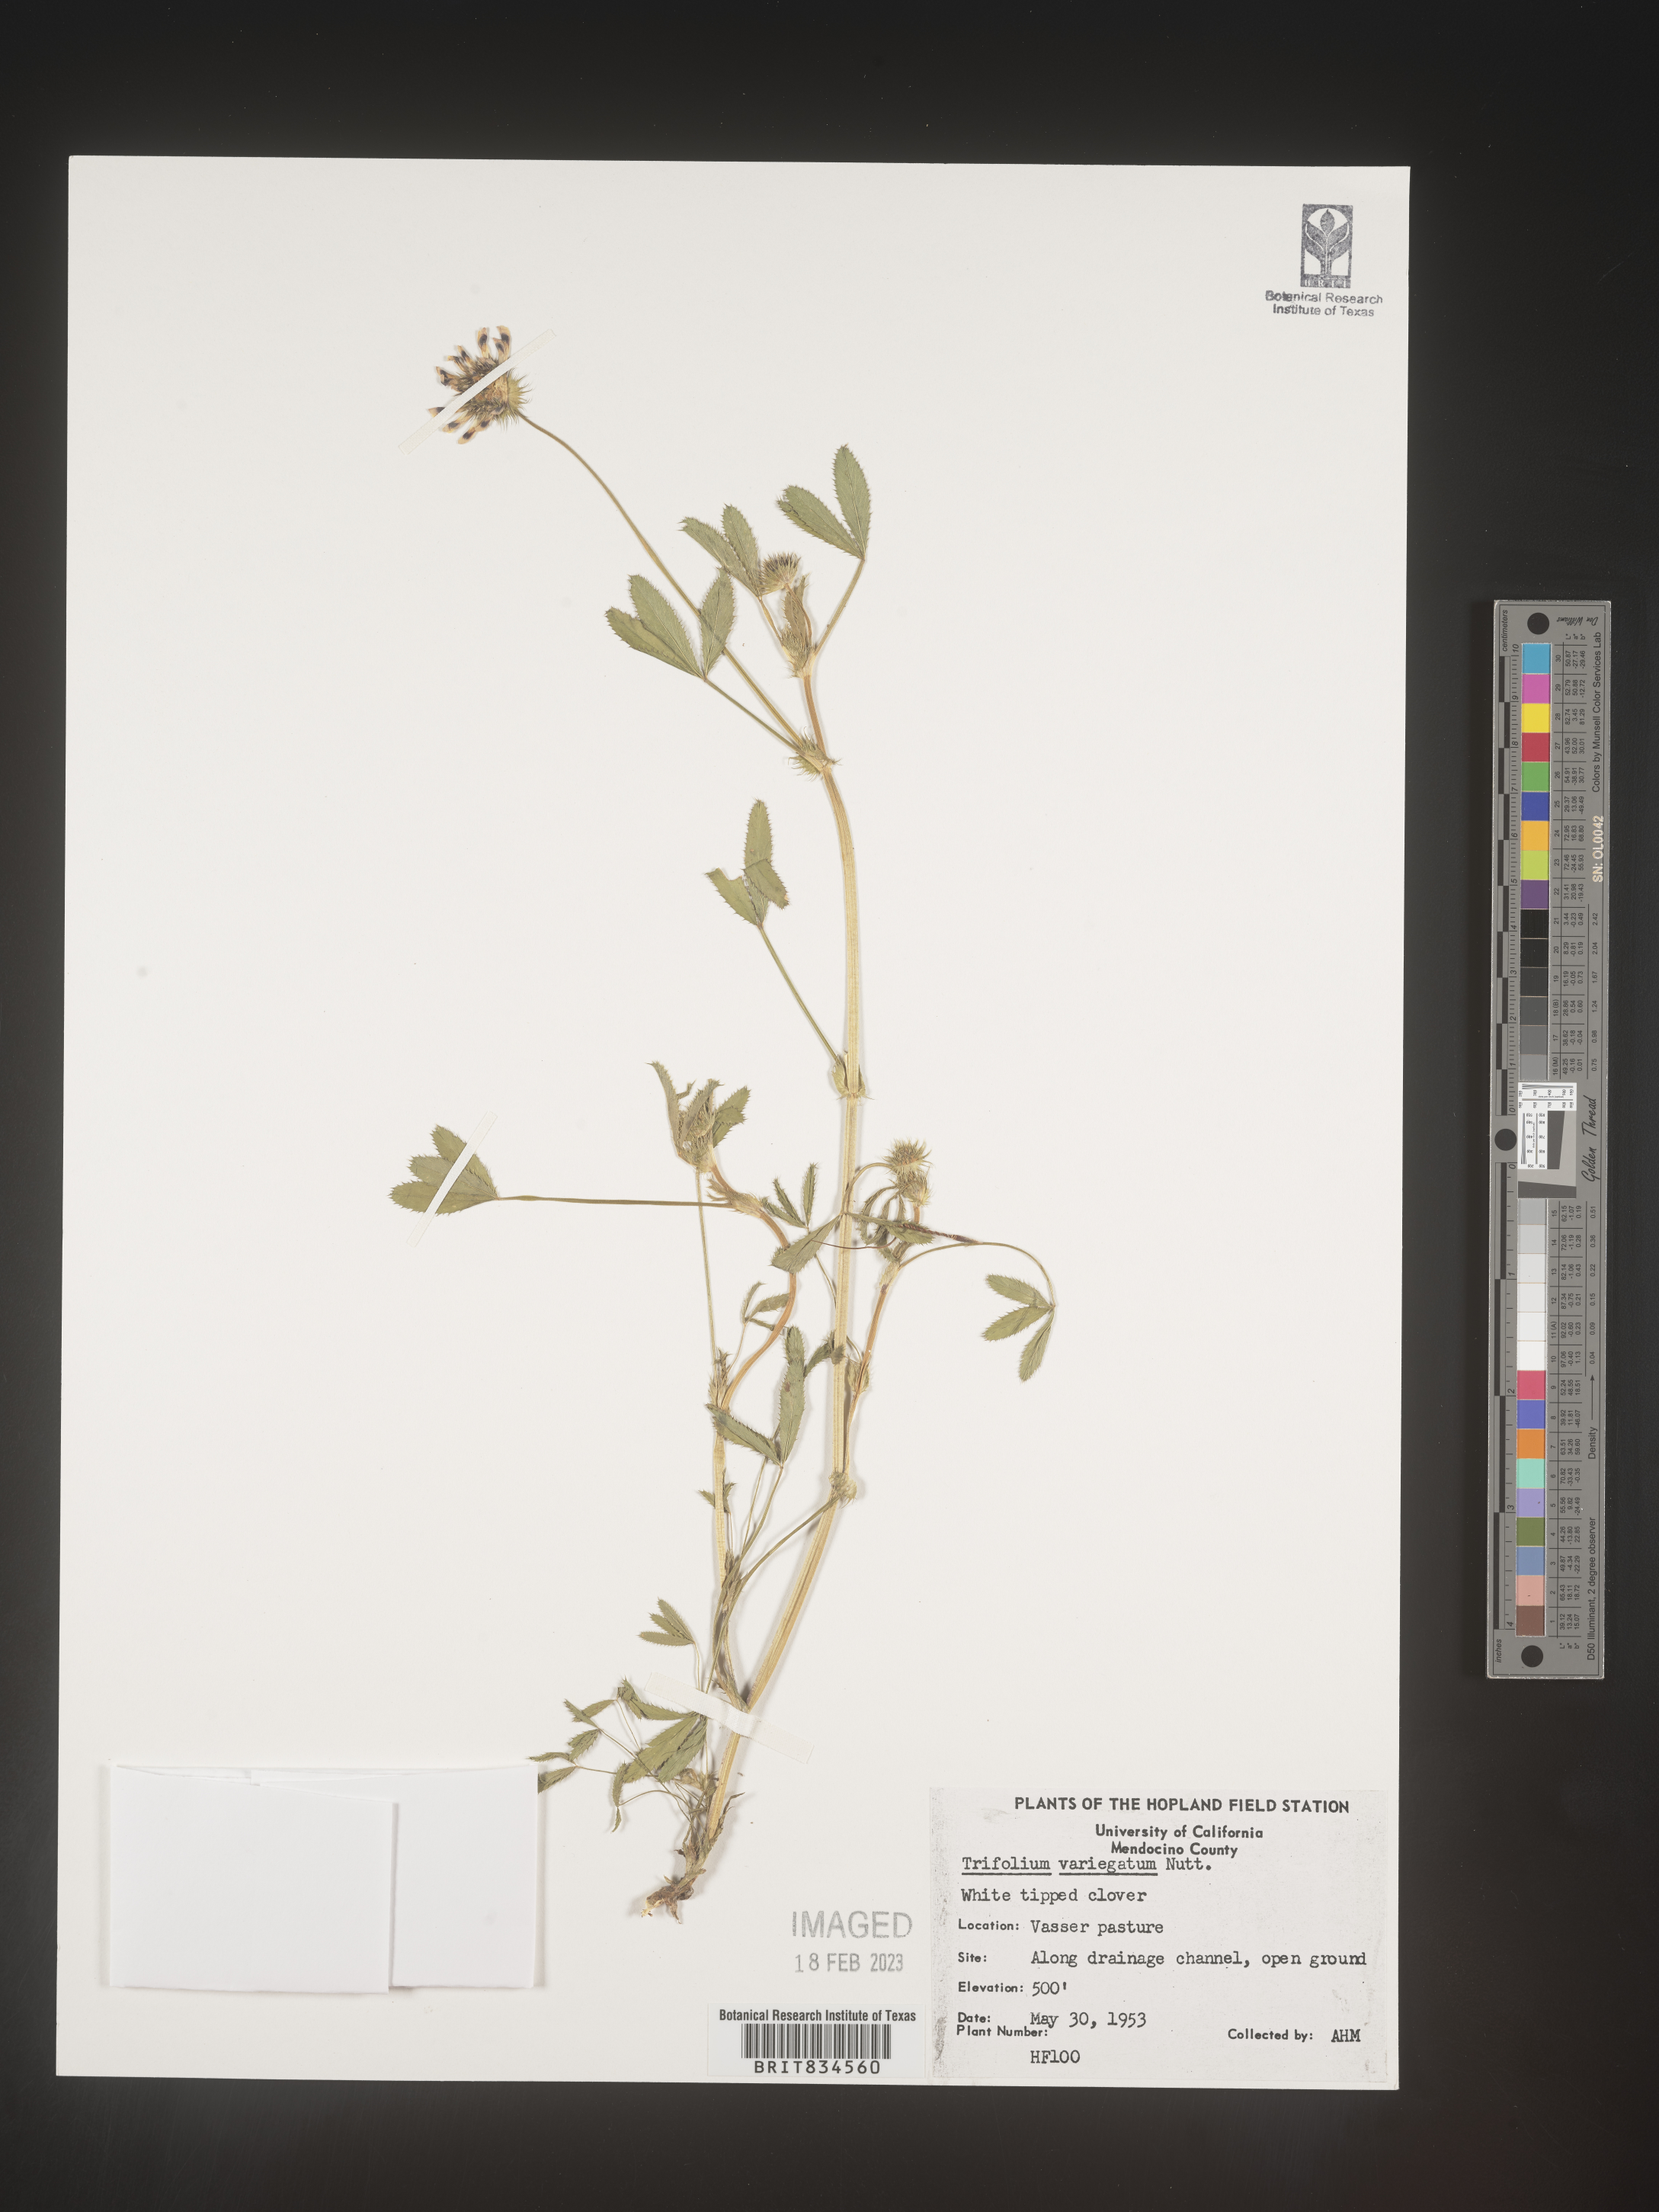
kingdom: Plantae
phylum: Tracheophyta
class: Magnoliopsida
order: Fabales
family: Fabaceae
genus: Trifolium
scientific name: Trifolium
